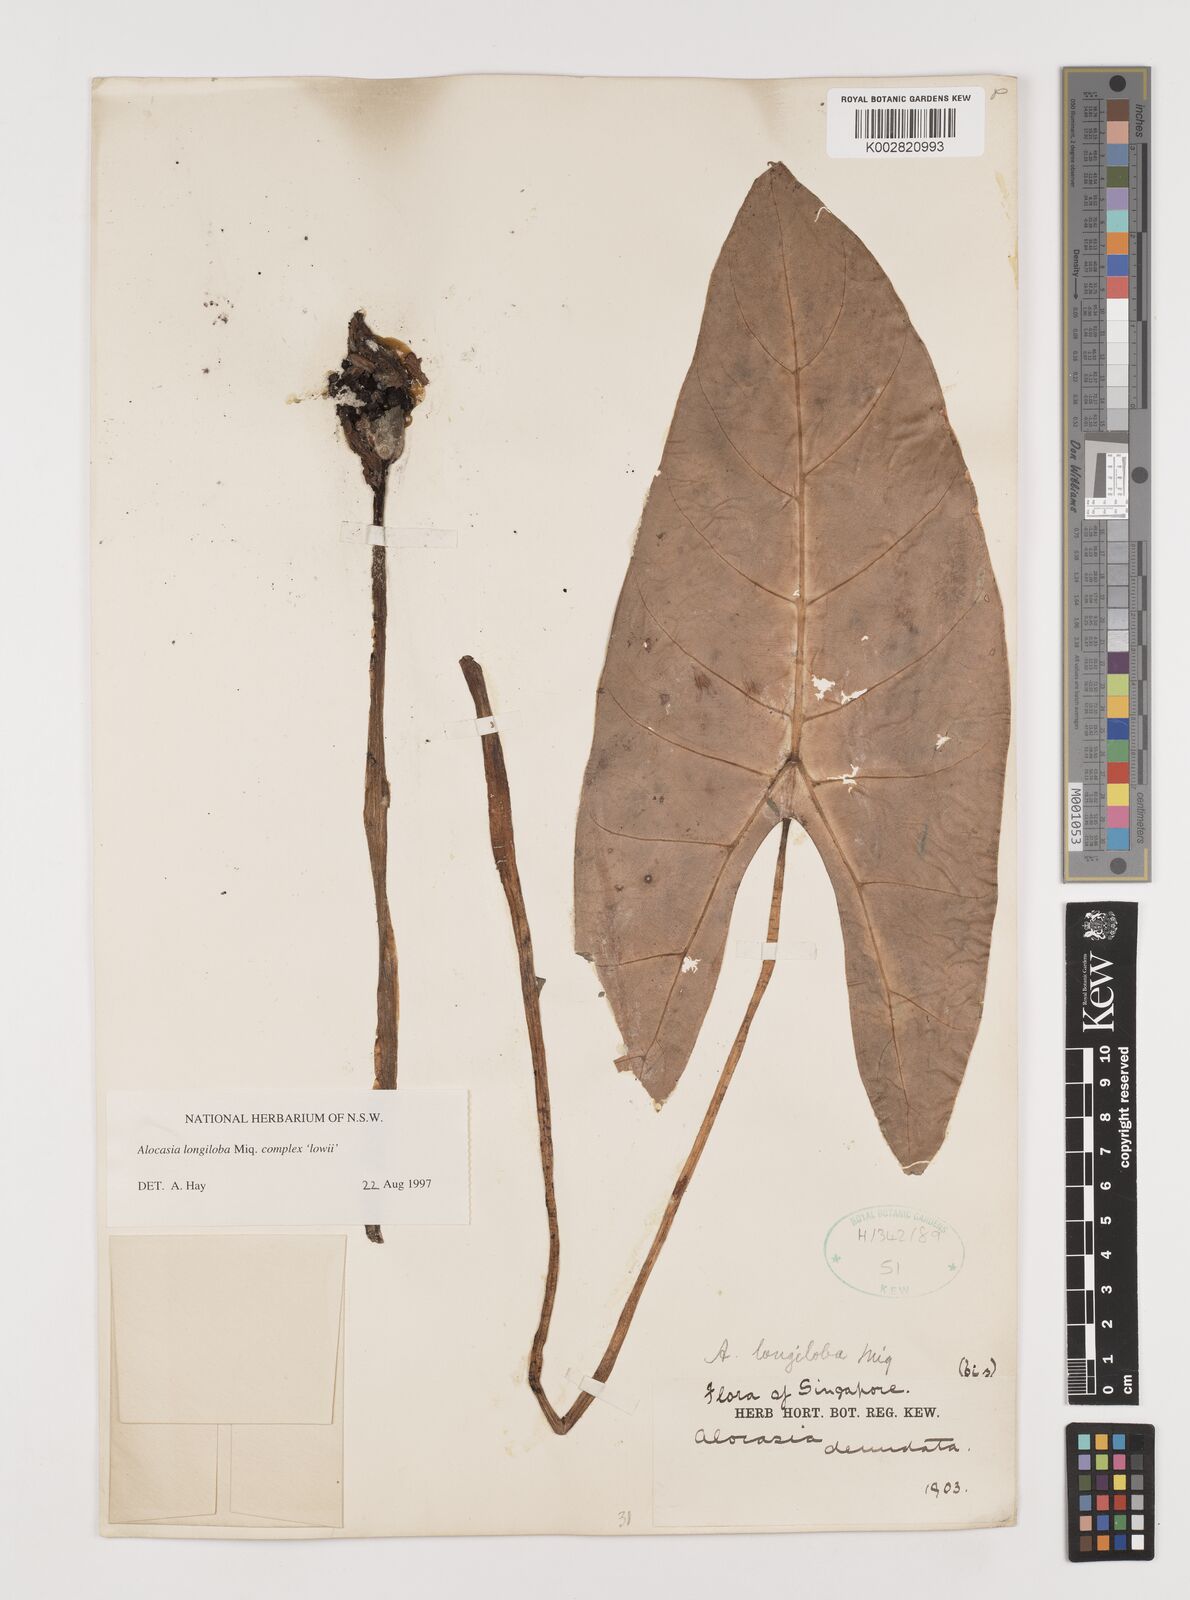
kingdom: Plantae
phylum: Tracheophyta
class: Liliopsida
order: Alismatales
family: Araceae
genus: Alocasia
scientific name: Alocasia longiloba
